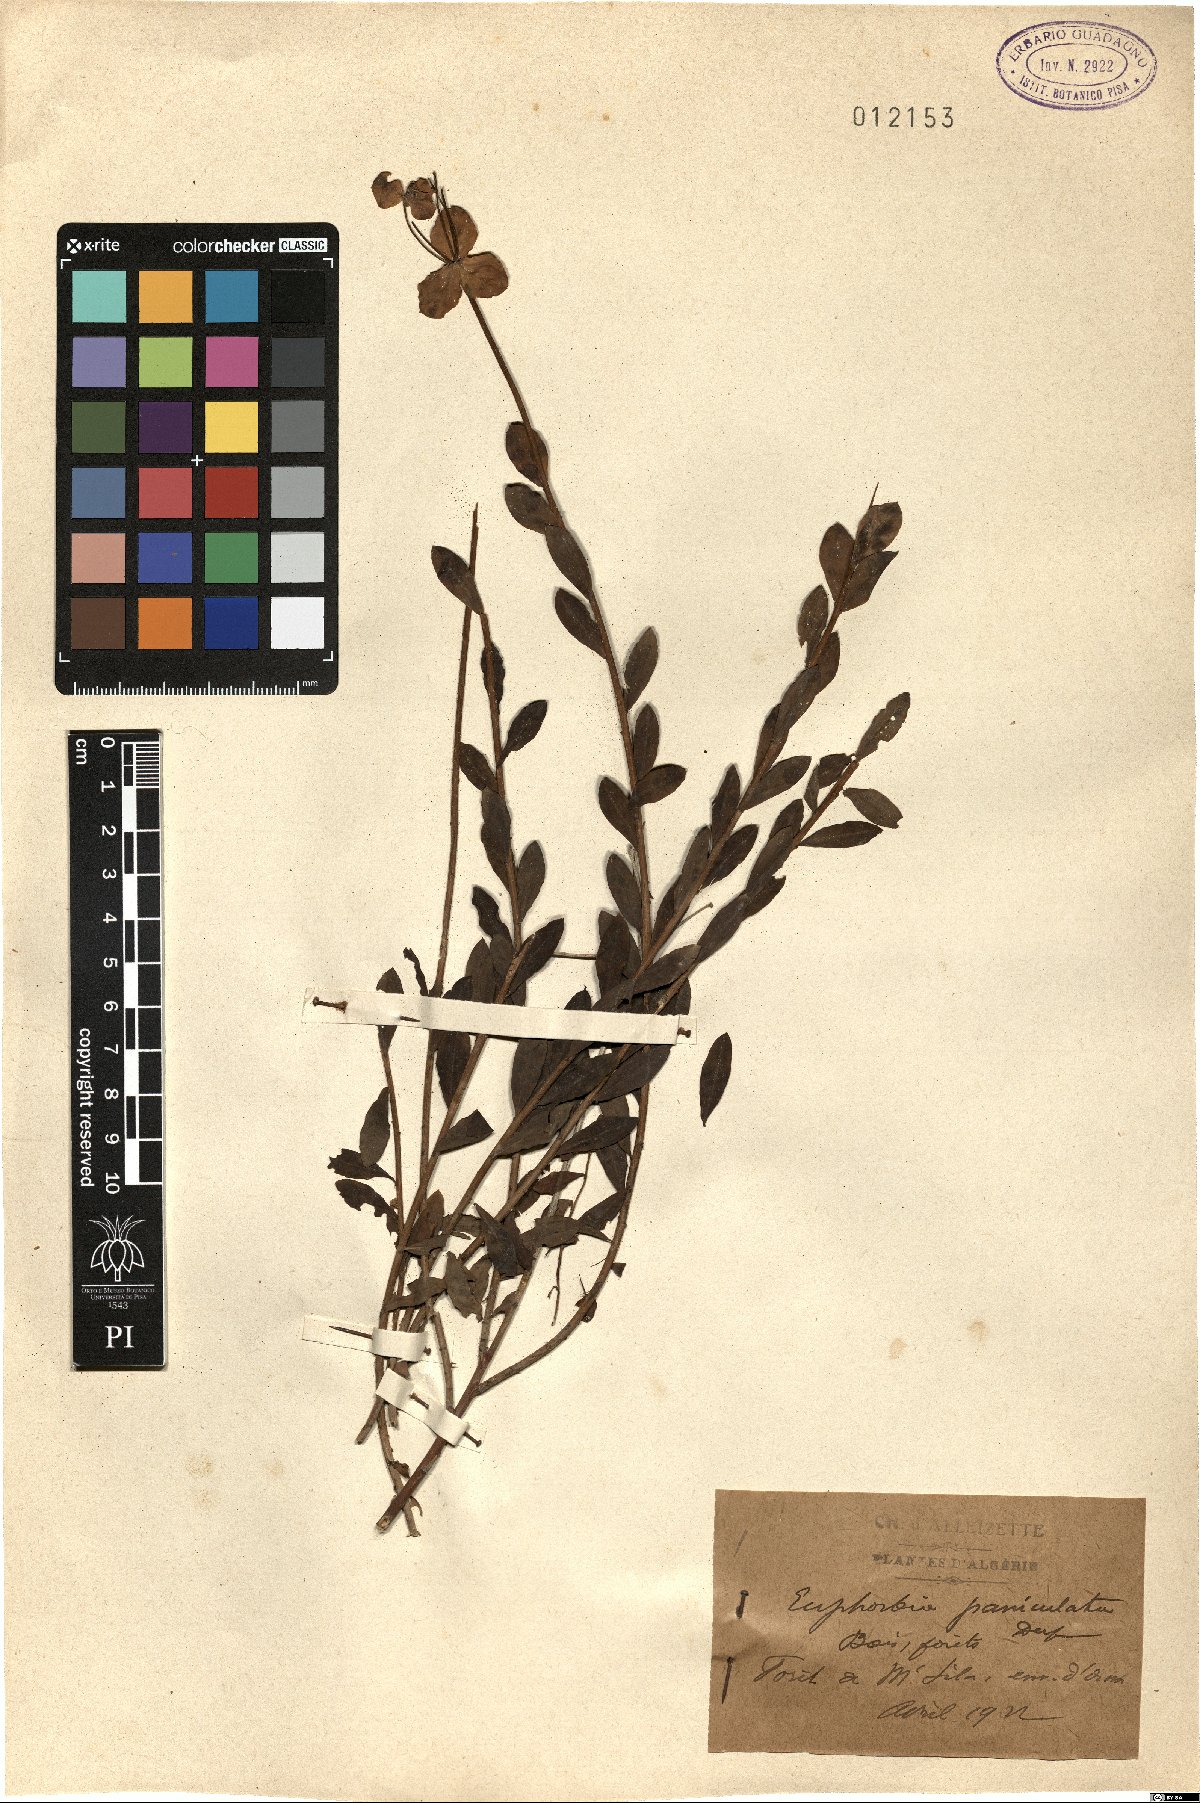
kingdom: Plantae
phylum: Tracheophyta
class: Magnoliopsida
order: Malpighiales
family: Euphorbiaceae
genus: Euphorbia
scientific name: Euphorbia paniculata
